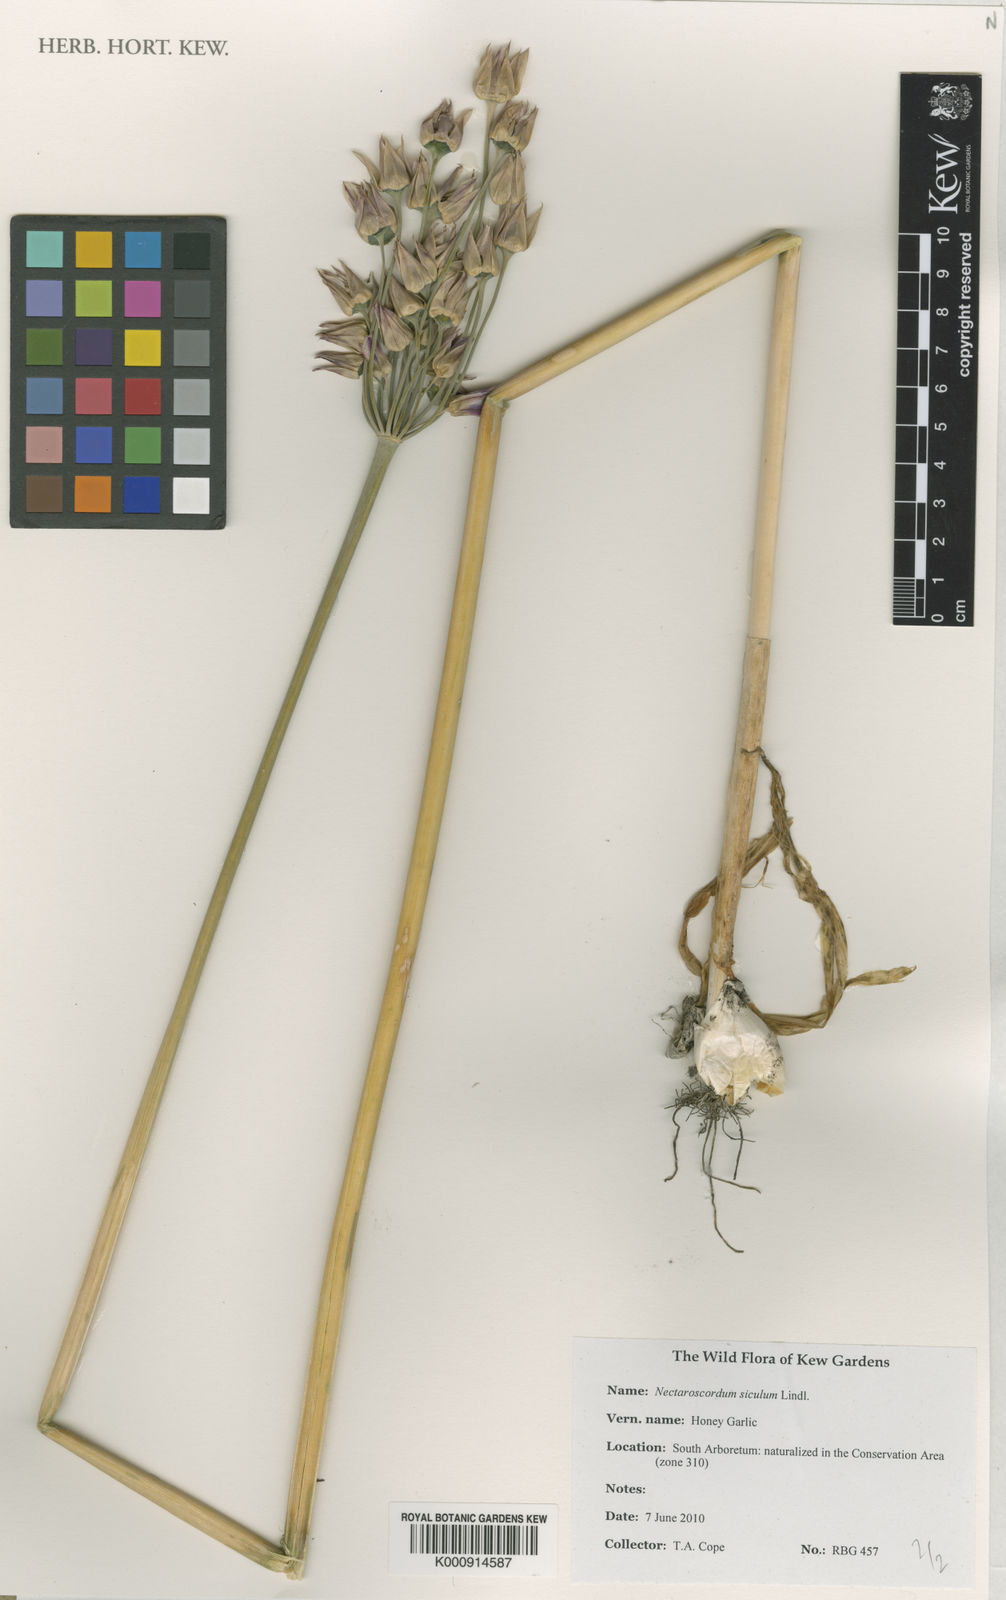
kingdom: Plantae
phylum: Tracheophyta
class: Liliopsida
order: Asparagales
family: Amaryllidaceae
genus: Allium
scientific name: Allium siculum
